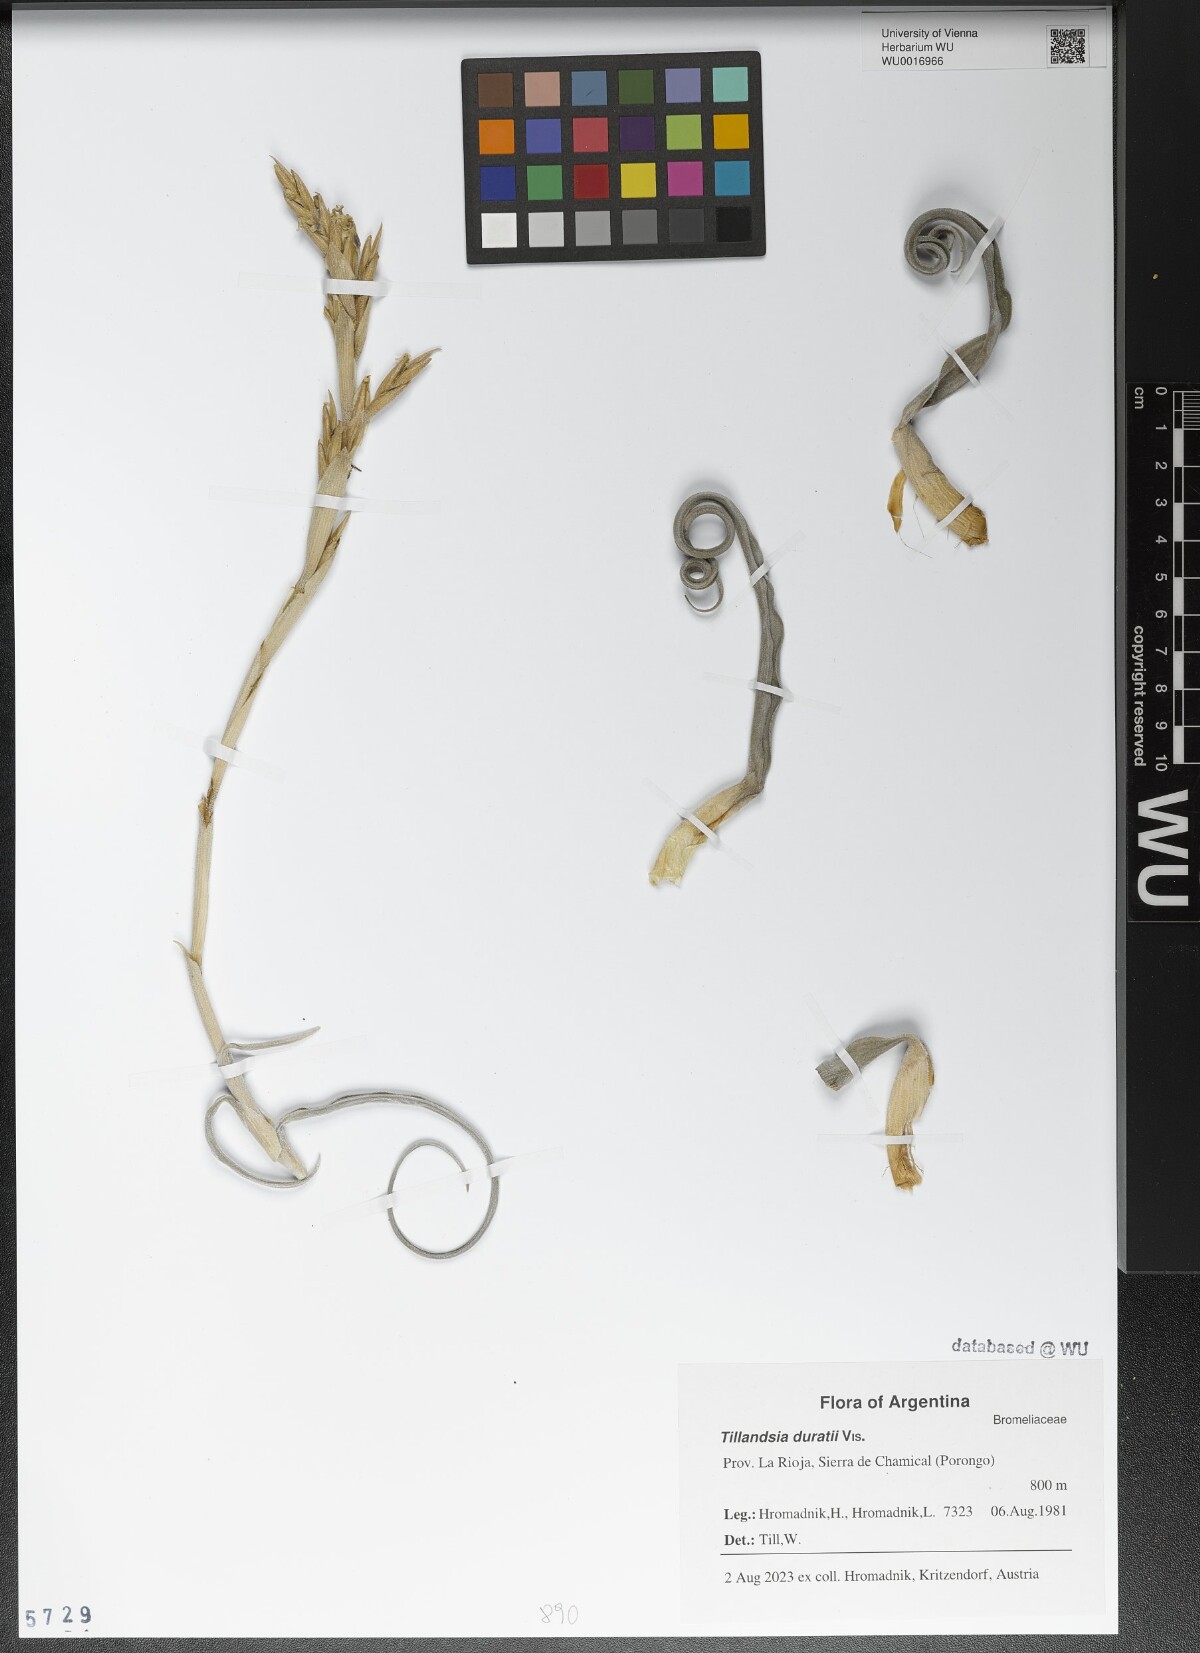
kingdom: Plantae
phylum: Tracheophyta
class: Liliopsida
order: Poales
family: Bromeliaceae
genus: Tillandsia
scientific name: Tillandsia duratii
